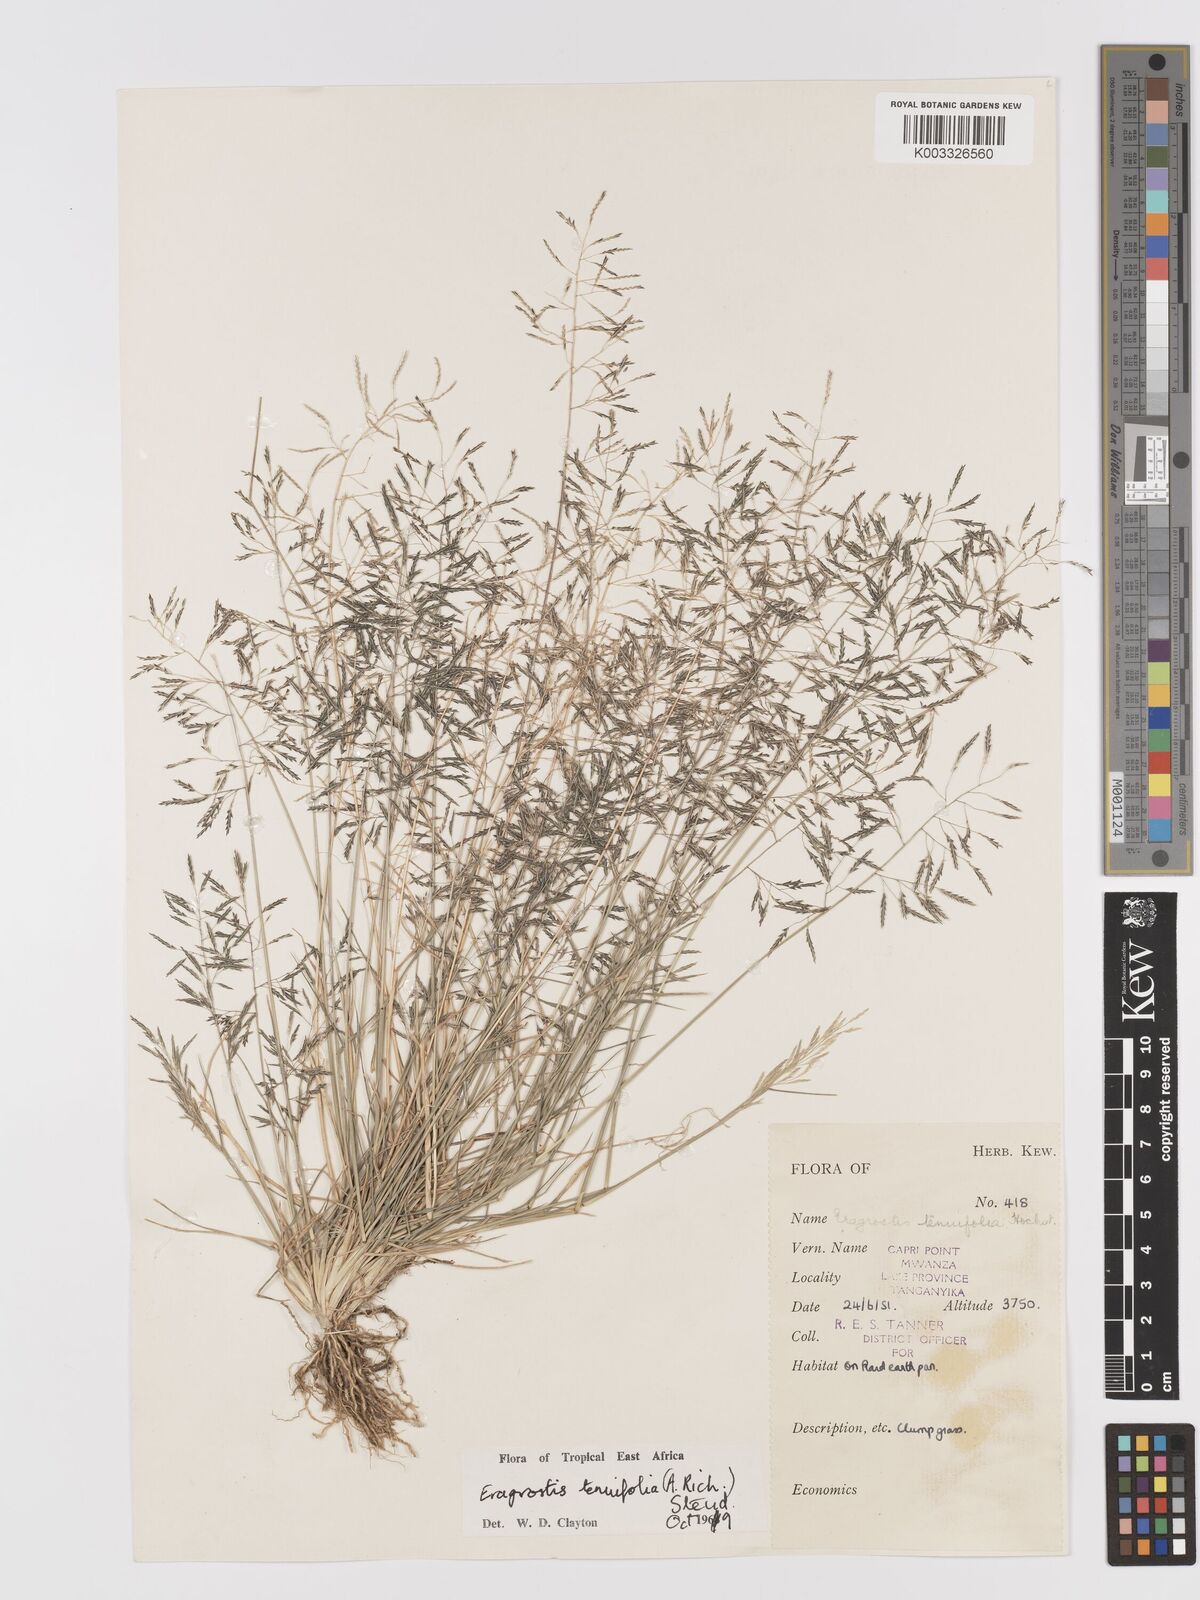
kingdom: Plantae
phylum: Tracheophyta
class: Liliopsida
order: Poales
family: Poaceae
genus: Eragrostis
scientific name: Eragrostis tenuifolia
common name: Elastic grass
